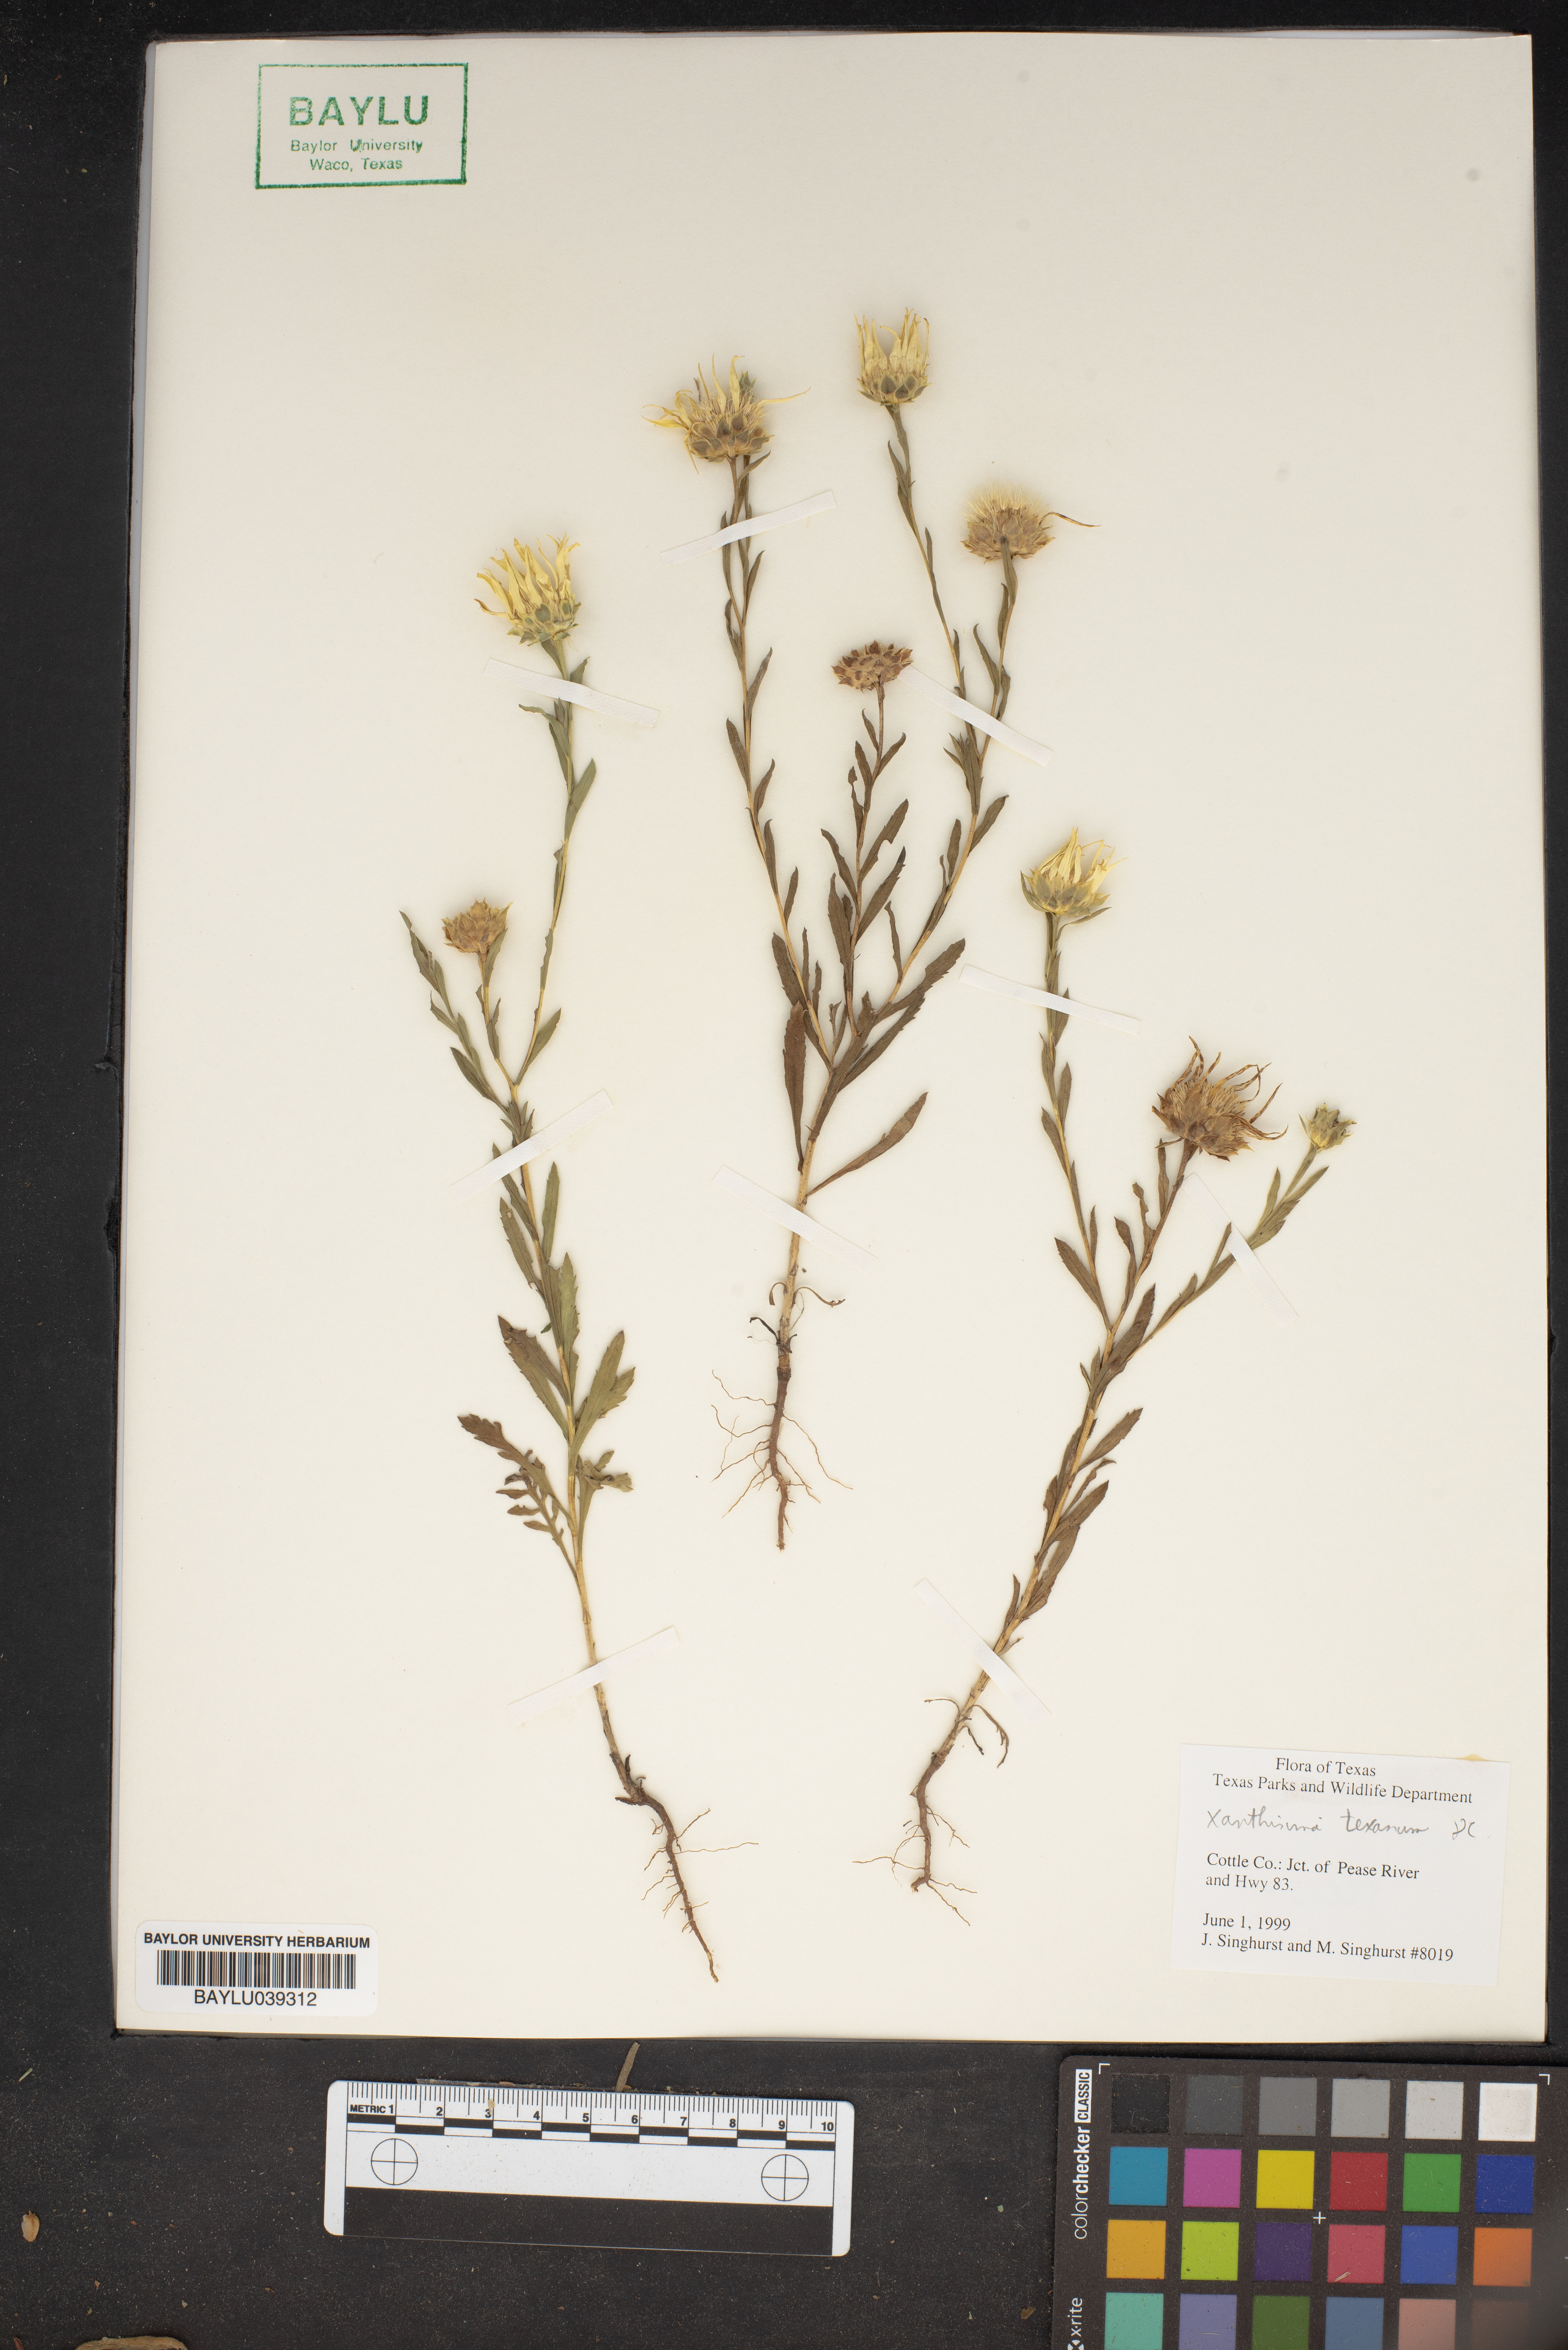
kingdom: Plantae
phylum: Tracheophyta
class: Magnoliopsida
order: Asterales
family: Asteraceae
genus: Xanthisma
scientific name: Xanthisma texanum
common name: Texas sleepy daisy
